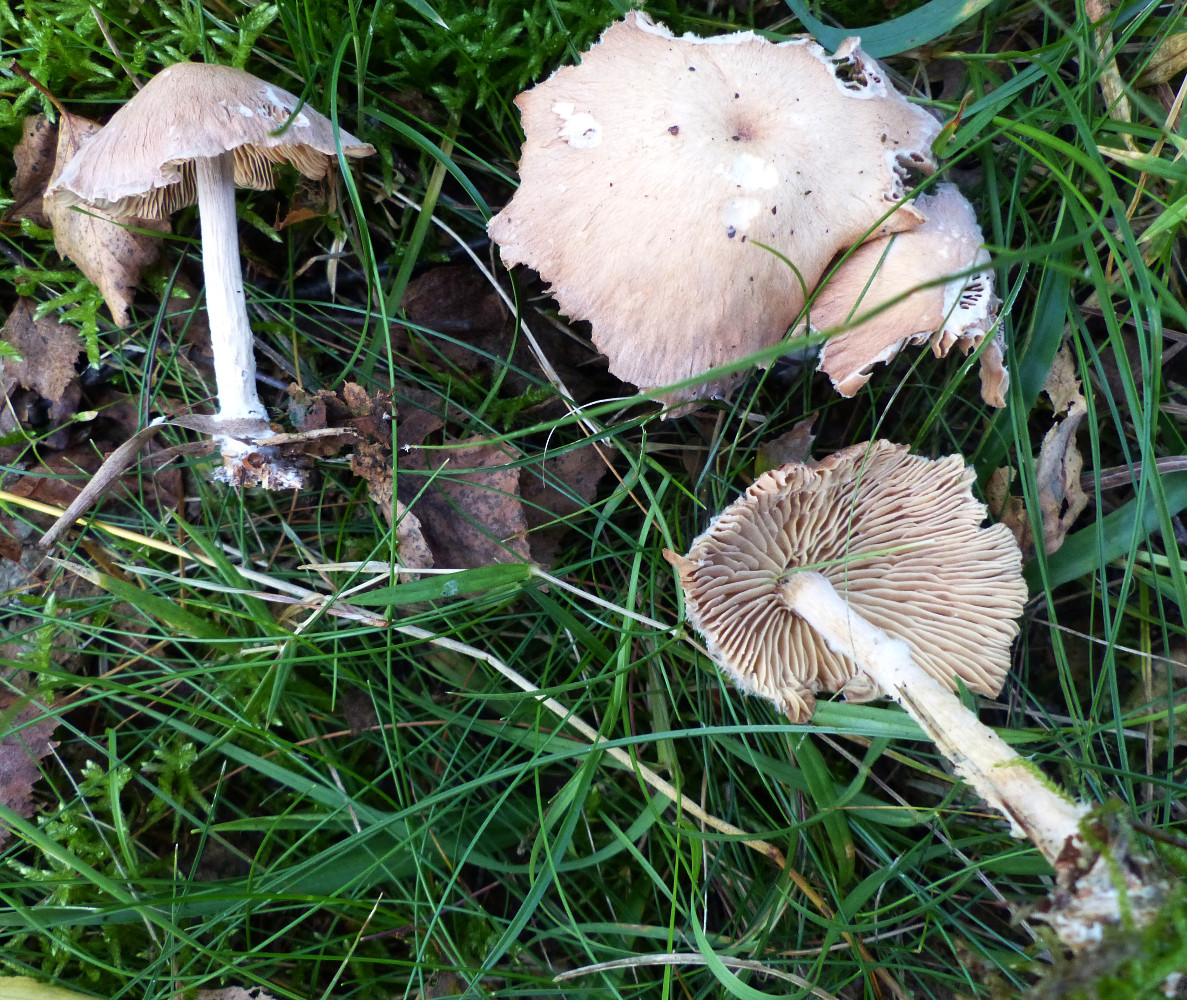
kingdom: Fungi
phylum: Basidiomycota
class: Agaricomycetes
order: Agaricales
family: Omphalotaceae
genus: Collybiopsis
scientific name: Collybiopsis peronata
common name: bestøvlet fladhat
